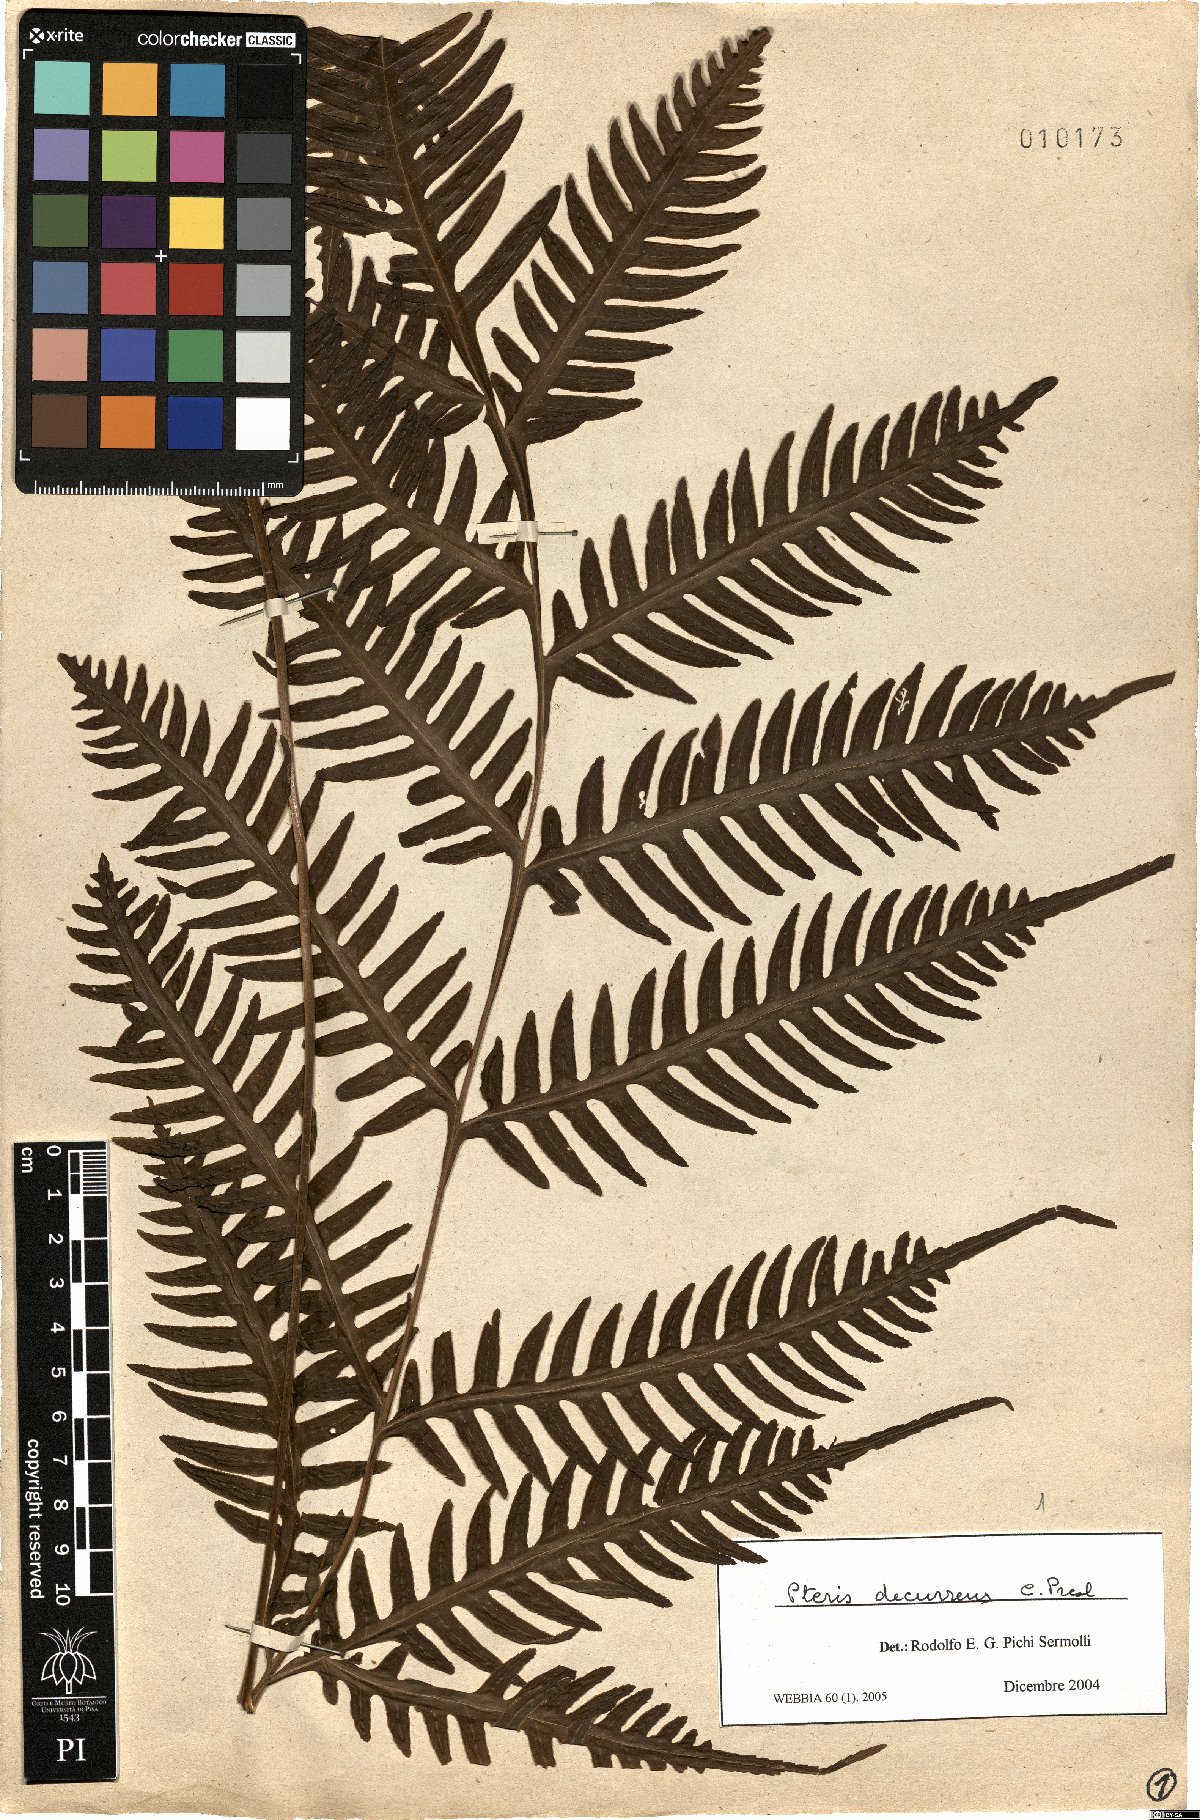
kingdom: Plantae
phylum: Tracheophyta
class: Polypodiopsida
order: Polypodiales
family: Pteridaceae
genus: Pteris
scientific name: Pteris decurrens
